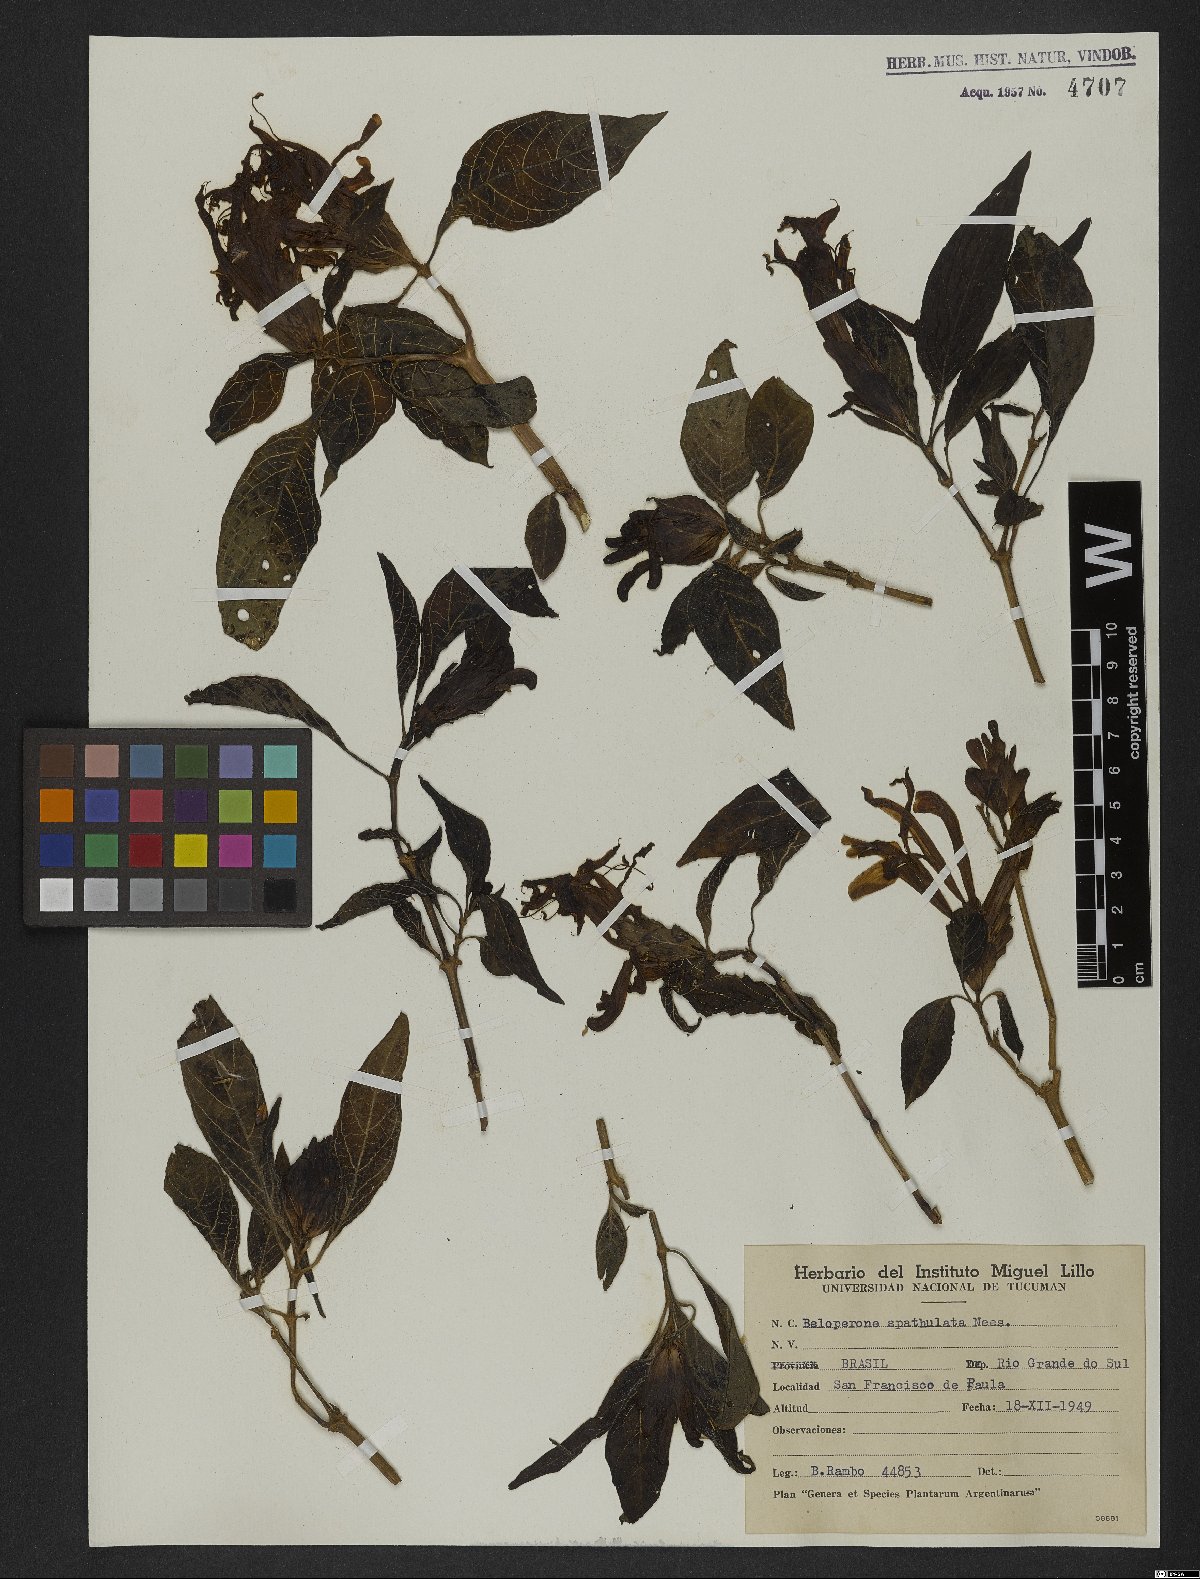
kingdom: Plantae
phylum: Tracheophyta
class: Magnoliopsida
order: Lamiales
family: Acanthaceae
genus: Poikilacanthus
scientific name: Poikilacanthus glandulosus
